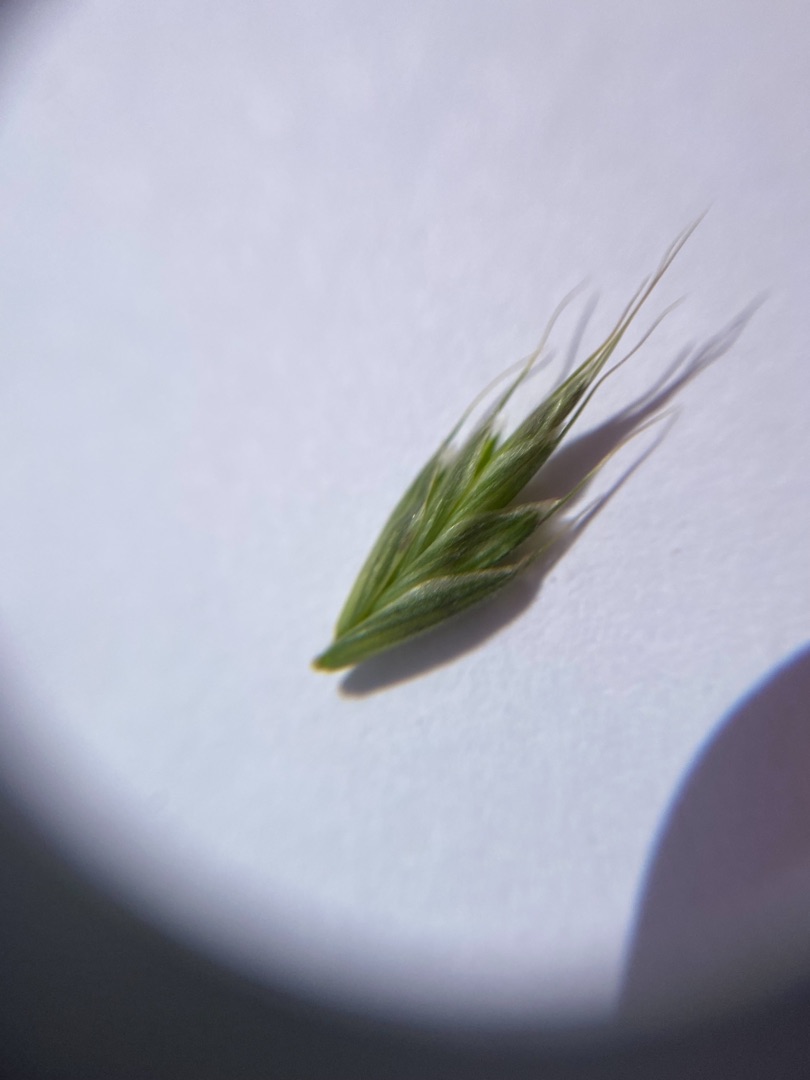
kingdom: Plantae
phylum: Tracheophyta
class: Liliopsida
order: Poales
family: Poaceae
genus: Bromus
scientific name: Bromus hordeaceus
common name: Blød hejre
